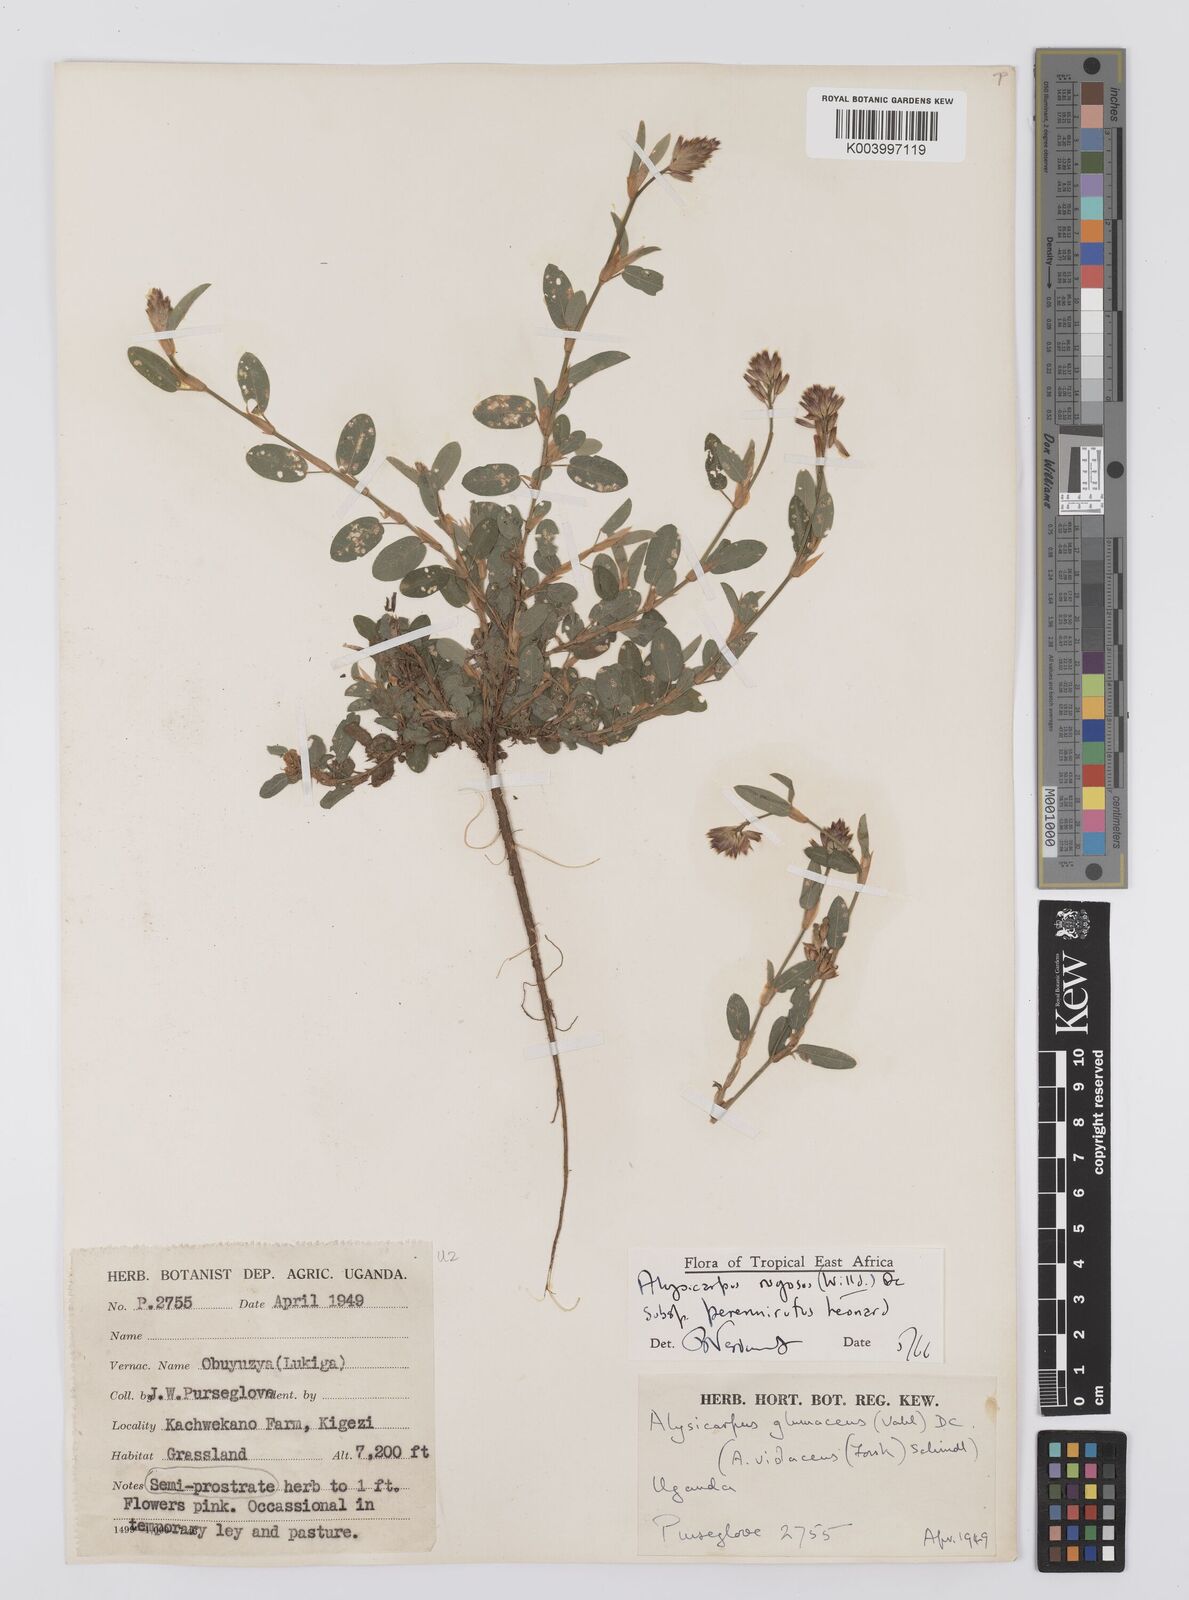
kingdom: Plantae
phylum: Tracheophyta
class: Magnoliopsida
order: Fabales
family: Fabaceae
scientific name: Fabaceae
